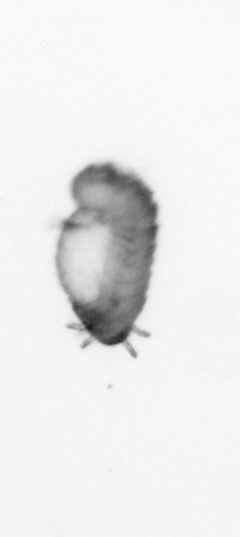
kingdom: Animalia
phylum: Annelida
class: Polychaeta
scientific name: Polychaeta
